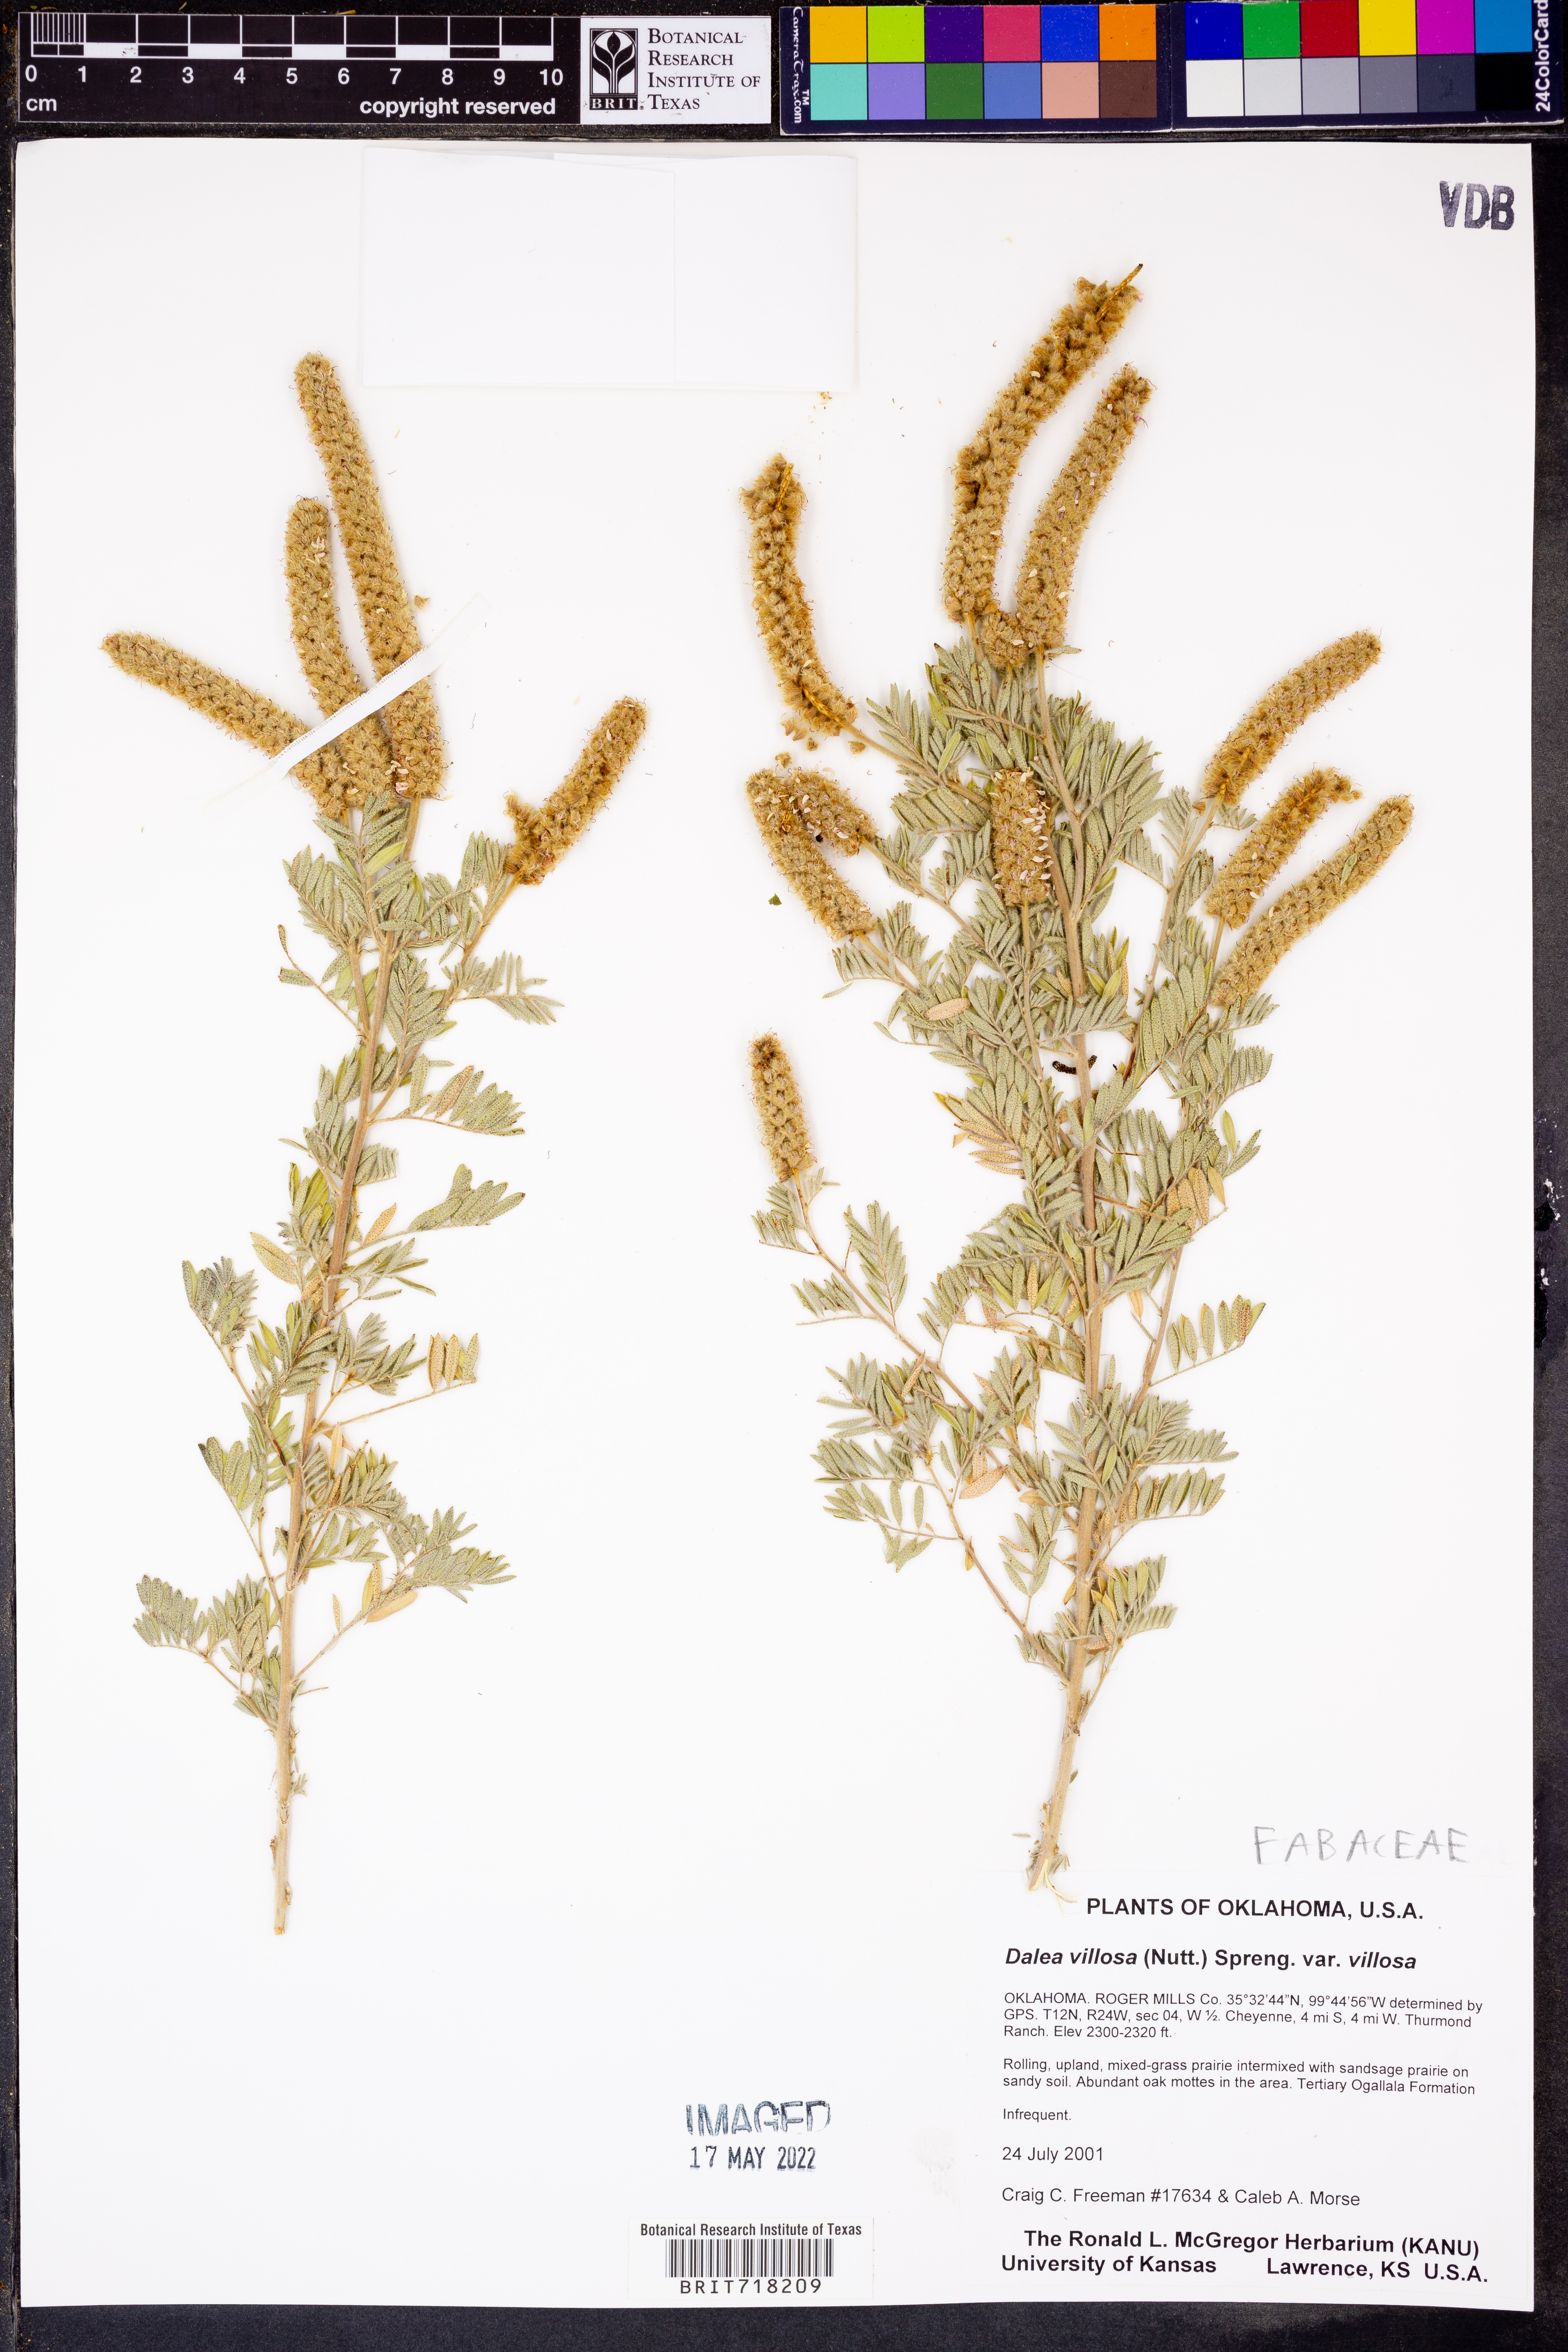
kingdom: Plantae
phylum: Tracheophyta
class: Magnoliopsida
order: Fabales
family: Fabaceae
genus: Dalea
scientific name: Dalea villosa
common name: Silky prairie-clover
